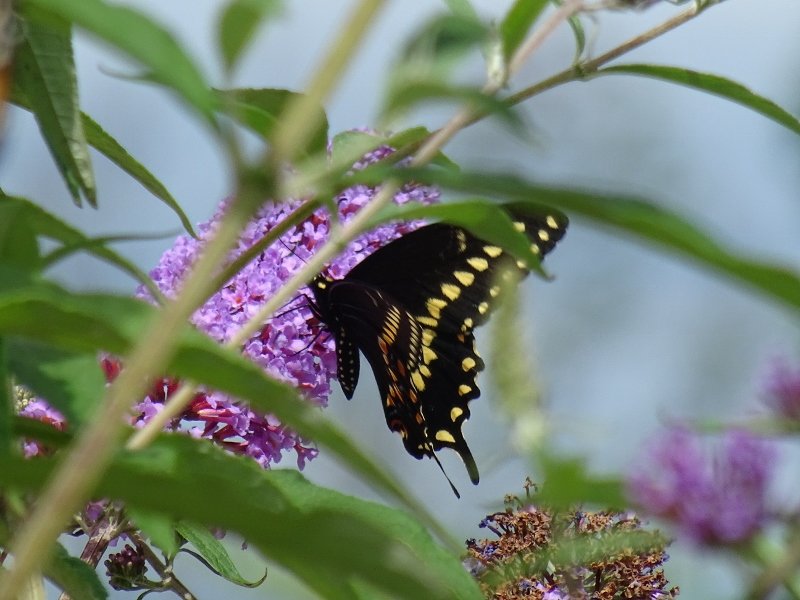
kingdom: Animalia
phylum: Arthropoda
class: Insecta
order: Lepidoptera
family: Papilionidae
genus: Papilio
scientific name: Papilio polyxenes
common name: Black Swallowtail
